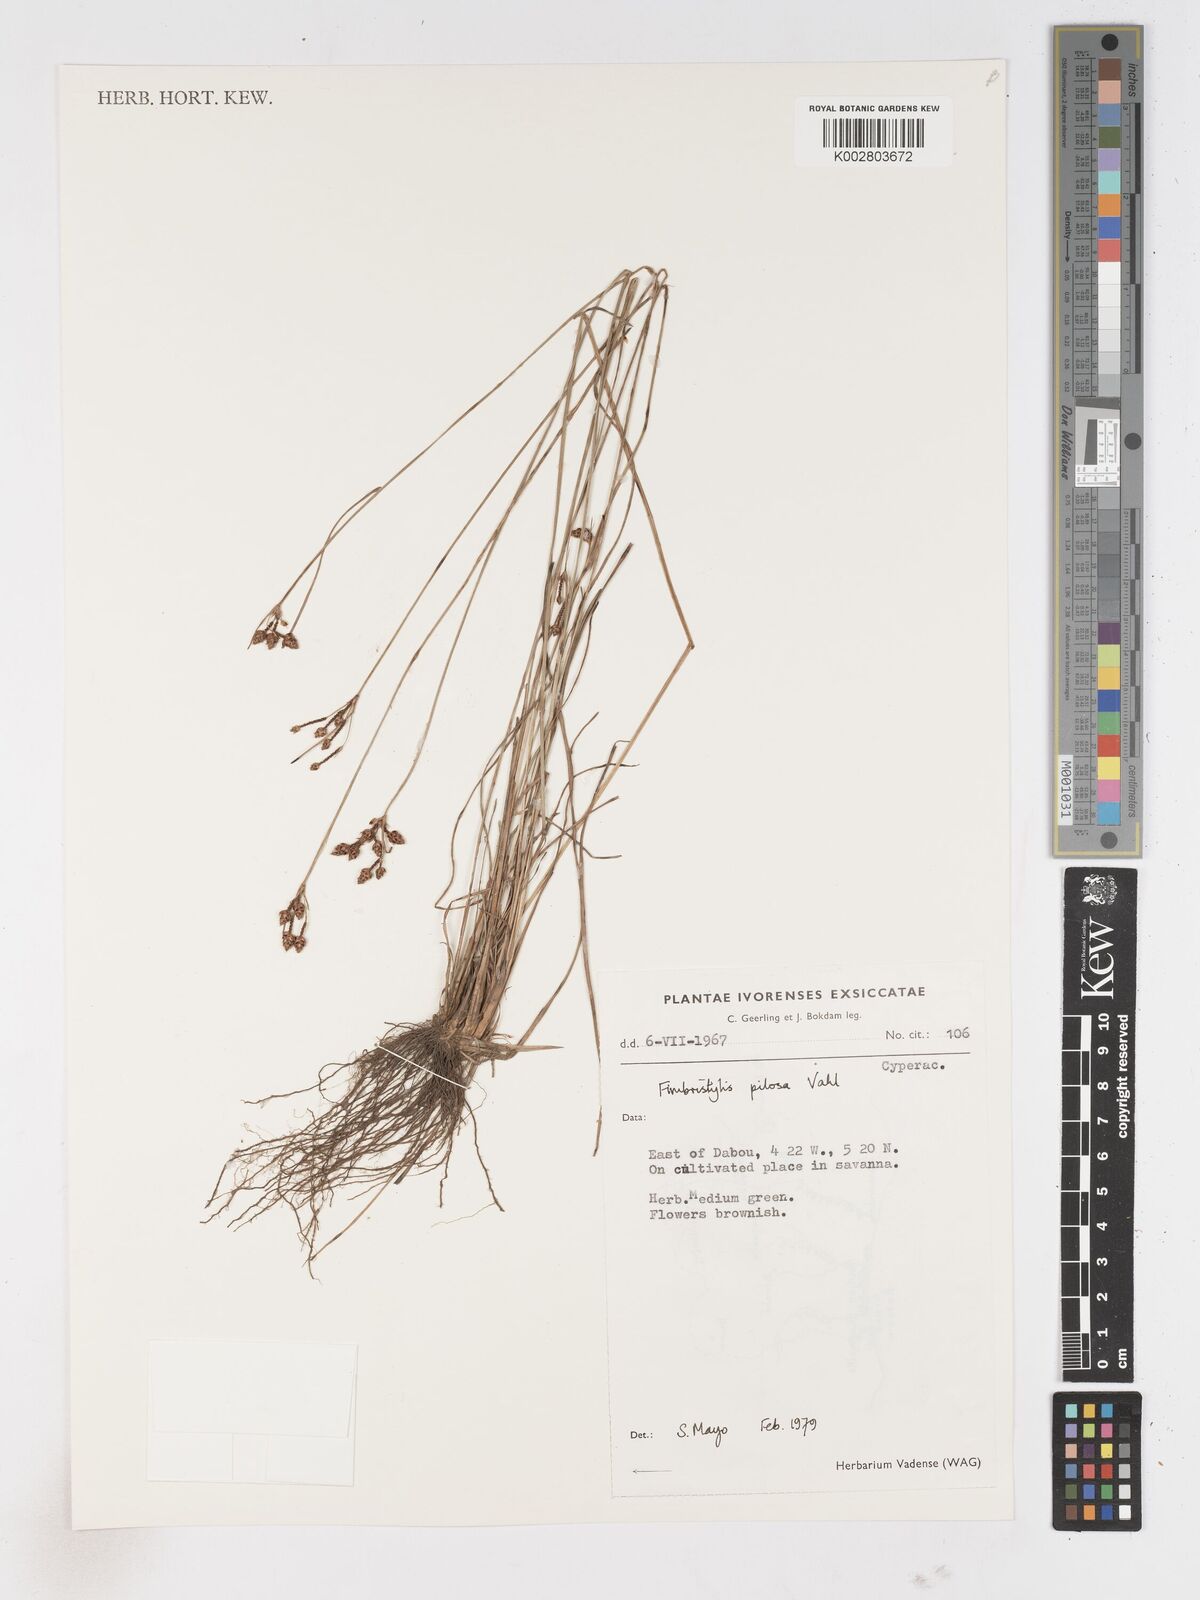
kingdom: Plantae
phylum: Tracheophyta
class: Liliopsida
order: Poales
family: Cyperaceae
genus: Fimbristylis
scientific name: Fimbristylis pilosa
